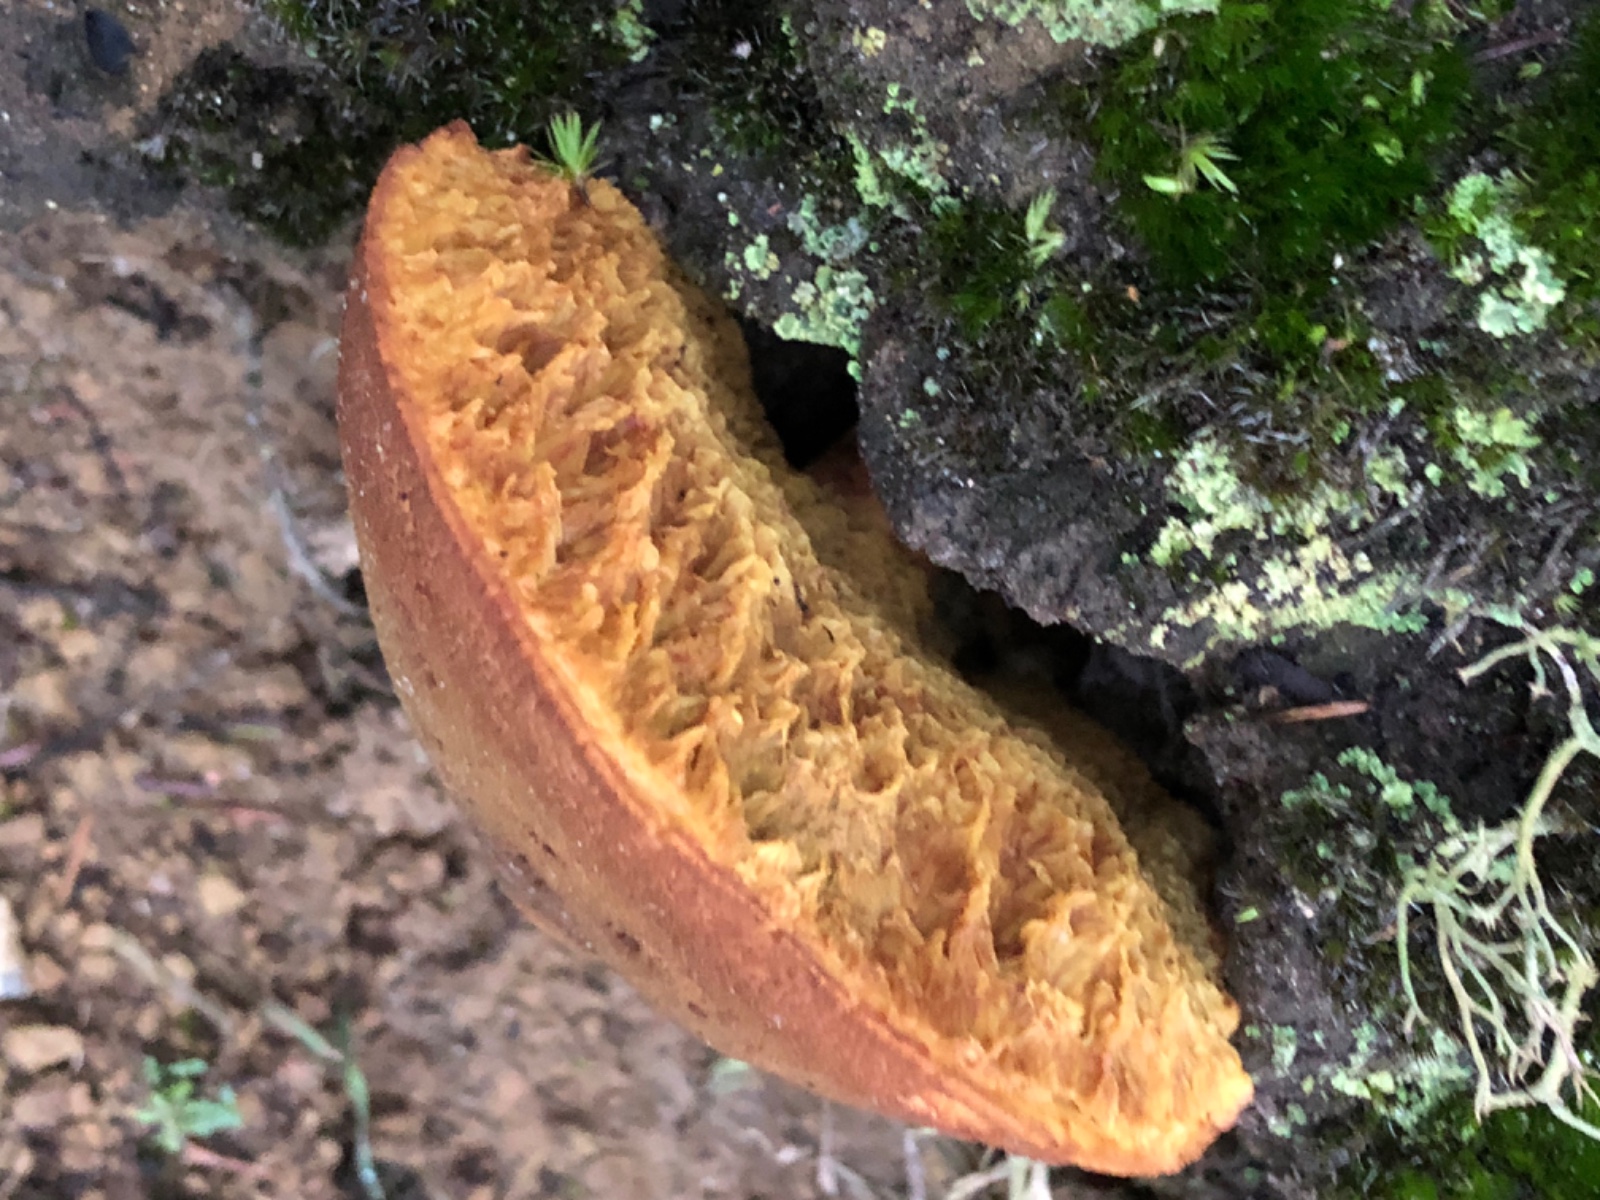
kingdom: Fungi
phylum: Basidiomycota
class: Agaricomycetes
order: Boletales
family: Boletaceae
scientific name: Boletaceae
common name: rørhatfamilien
